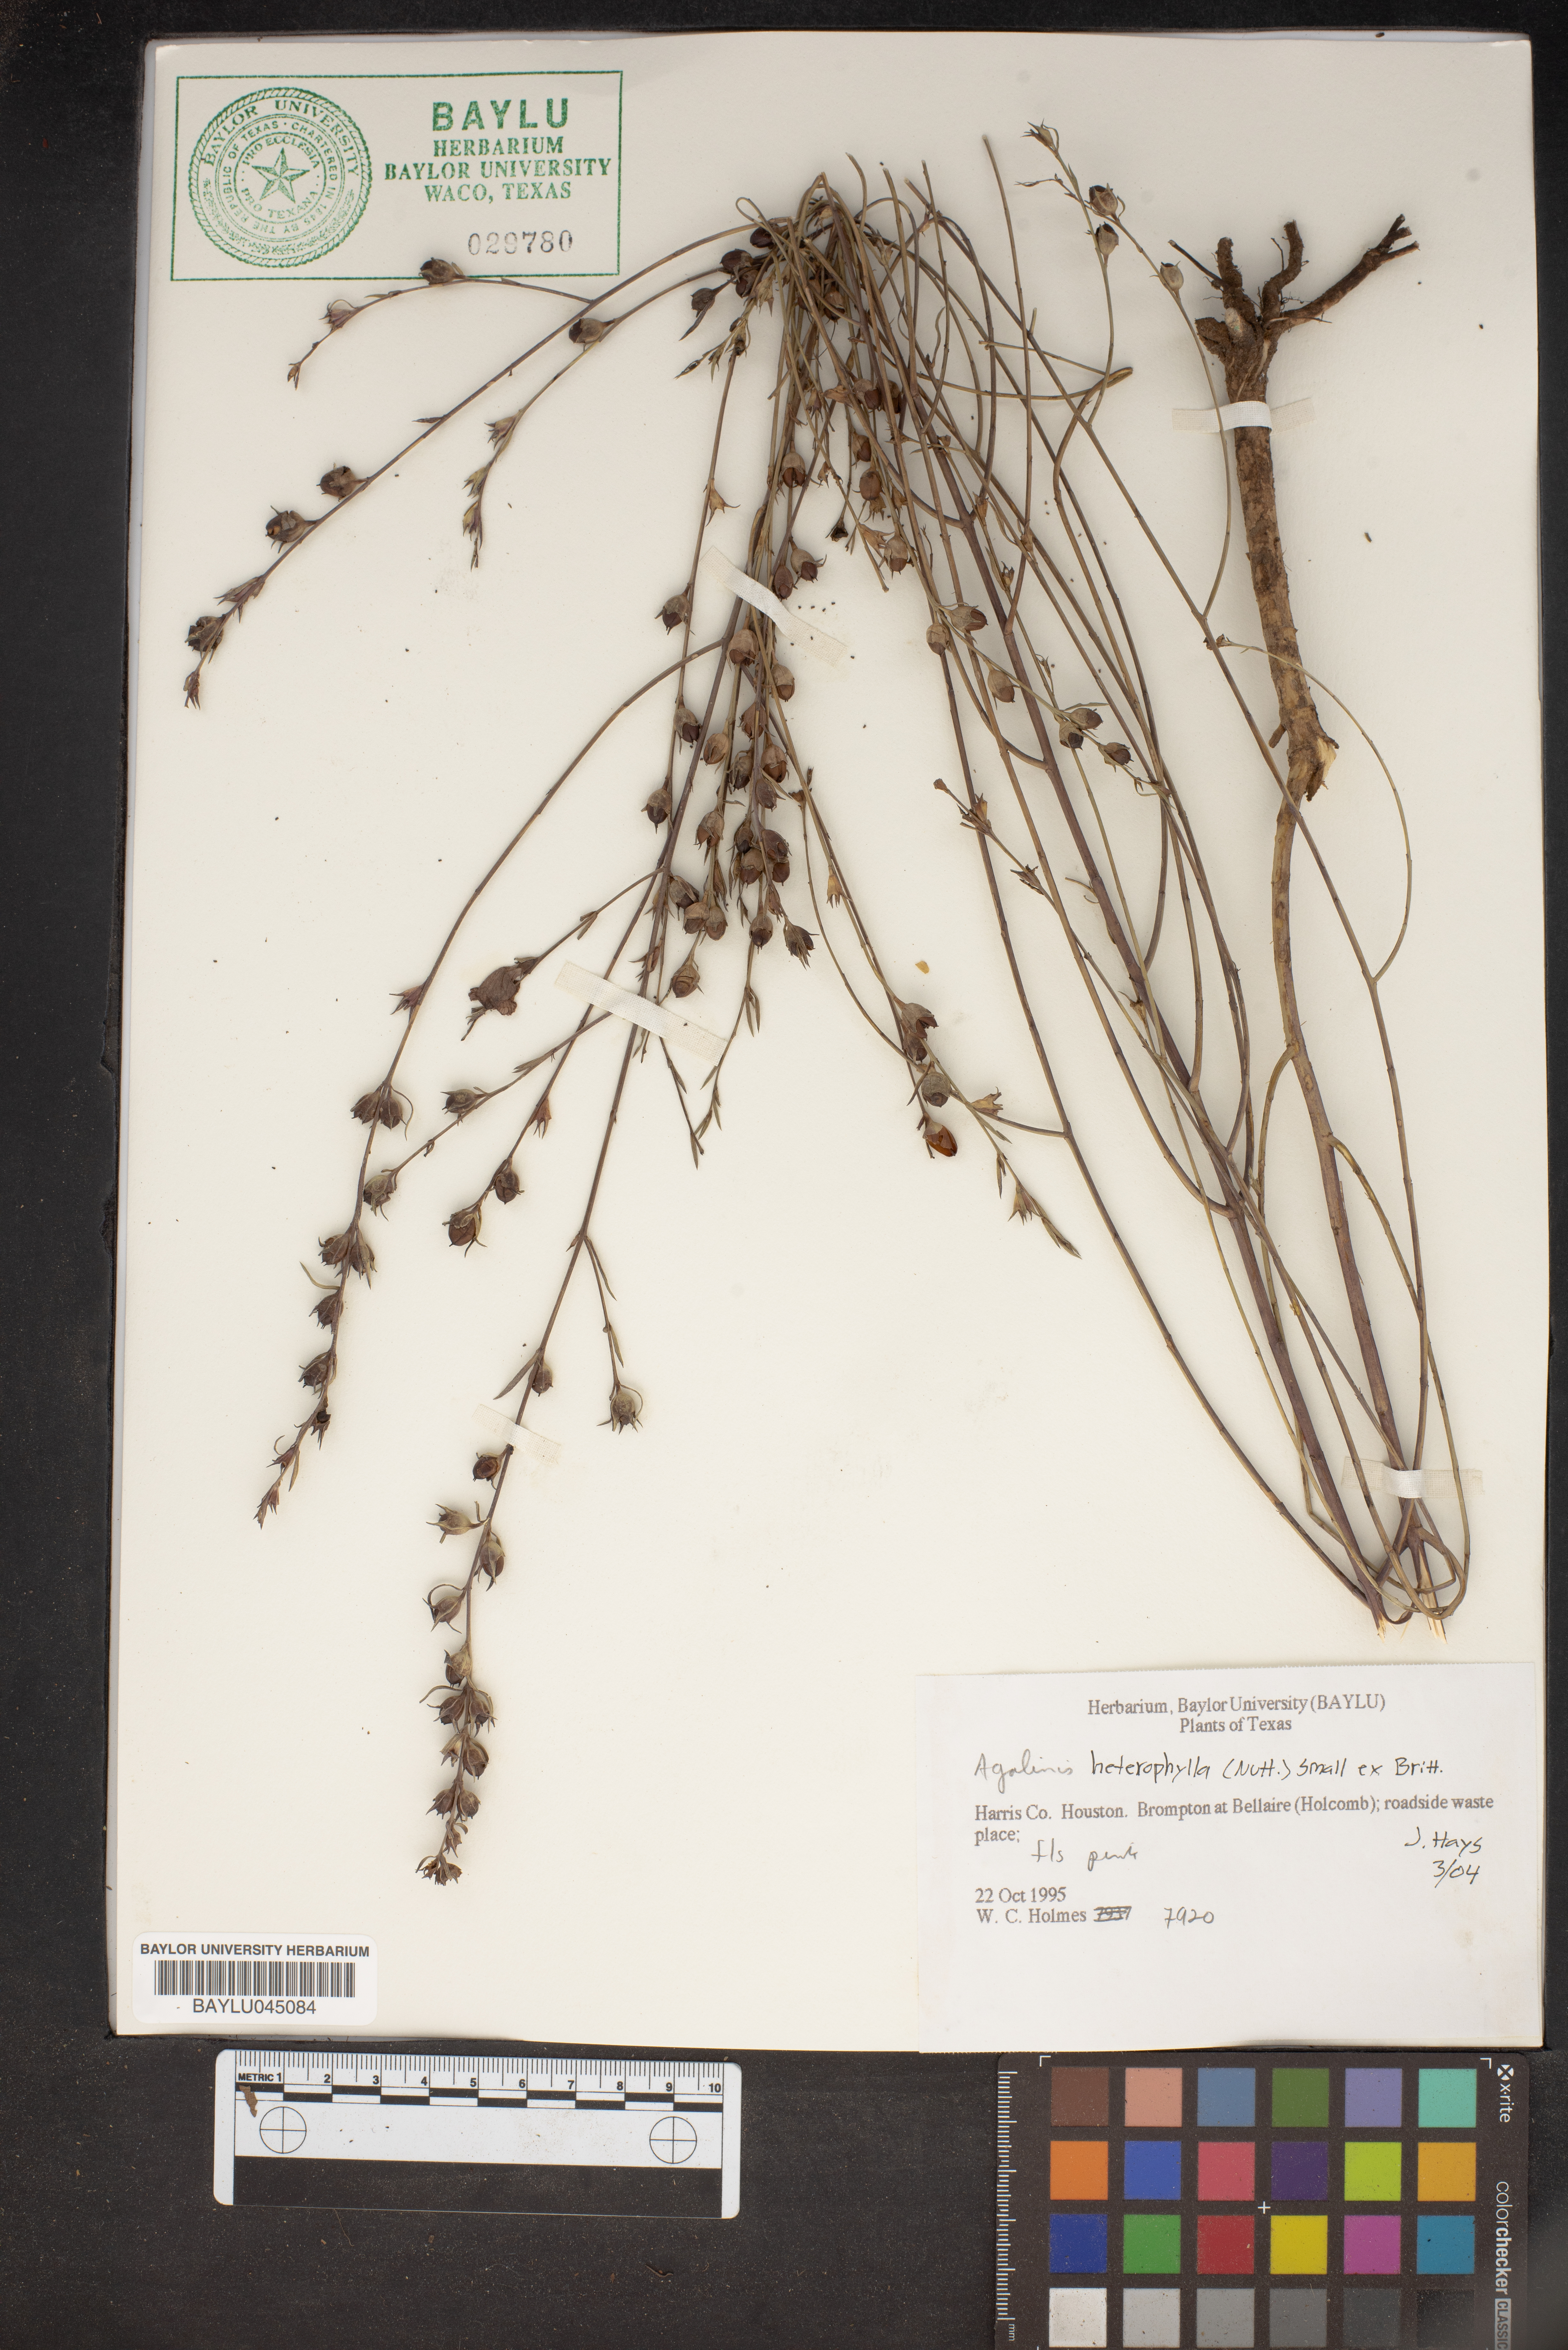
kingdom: Plantae
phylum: Tracheophyta
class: Magnoliopsida
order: Lamiales
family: Orobanchaceae
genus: Agalinis
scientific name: Agalinis heterophylla
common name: Prairie agalinis
